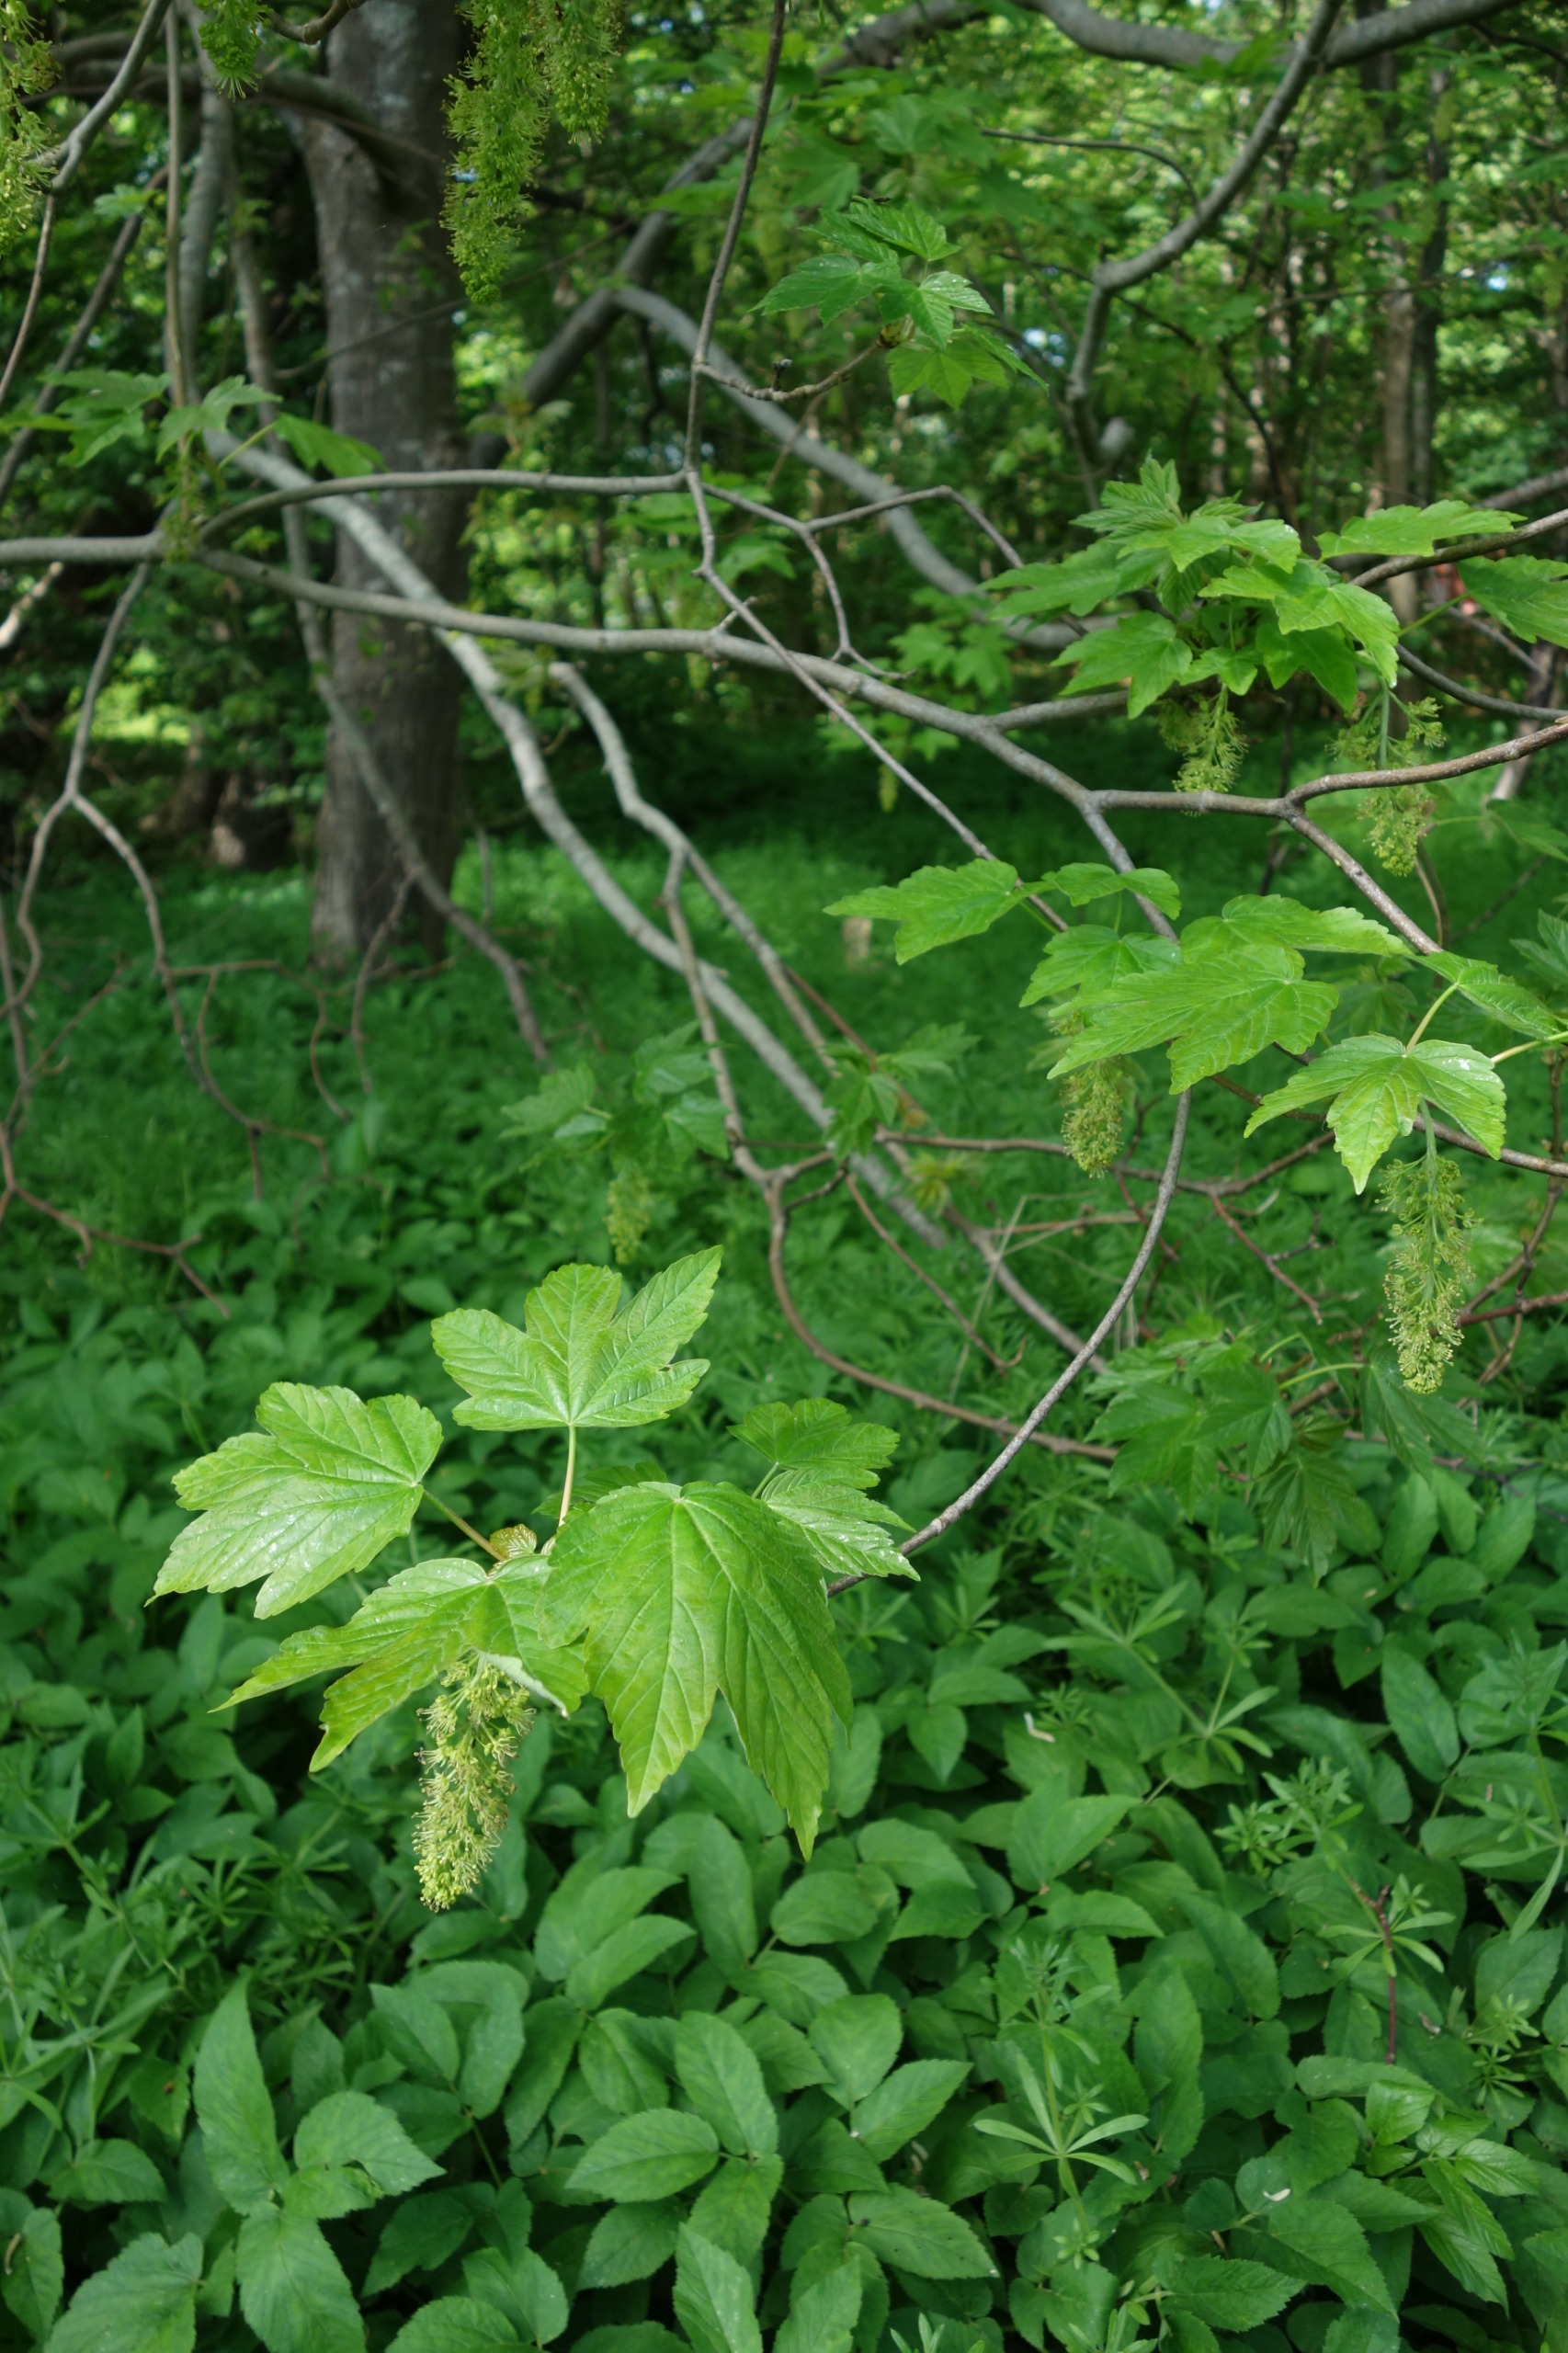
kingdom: Plantae
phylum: Tracheophyta
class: Magnoliopsida
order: Sapindales
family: Sapindaceae
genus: Acer
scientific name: Acer pseudoplatanus
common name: Ahorn
